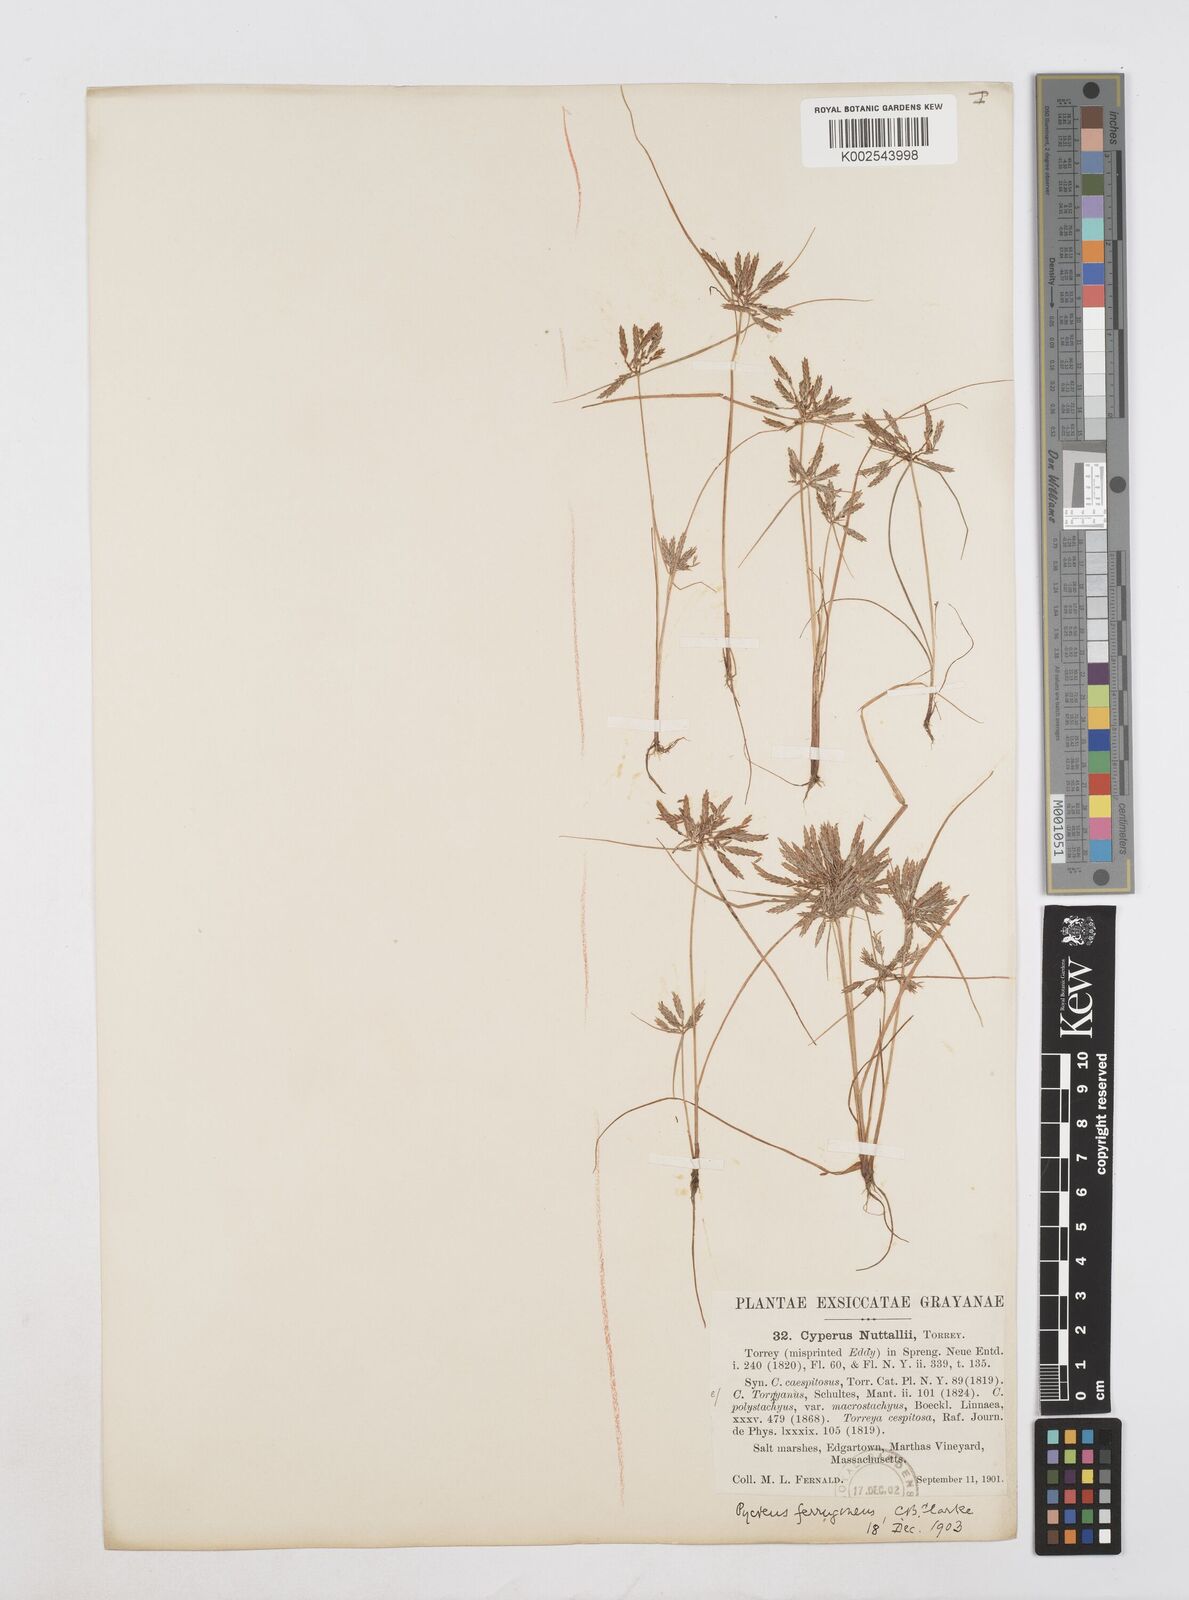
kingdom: Plantae
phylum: Tracheophyta
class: Liliopsida
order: Poales
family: Cyperaceae
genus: Cyperus
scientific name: Cyperus filicinus
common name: Fern flatsedge
